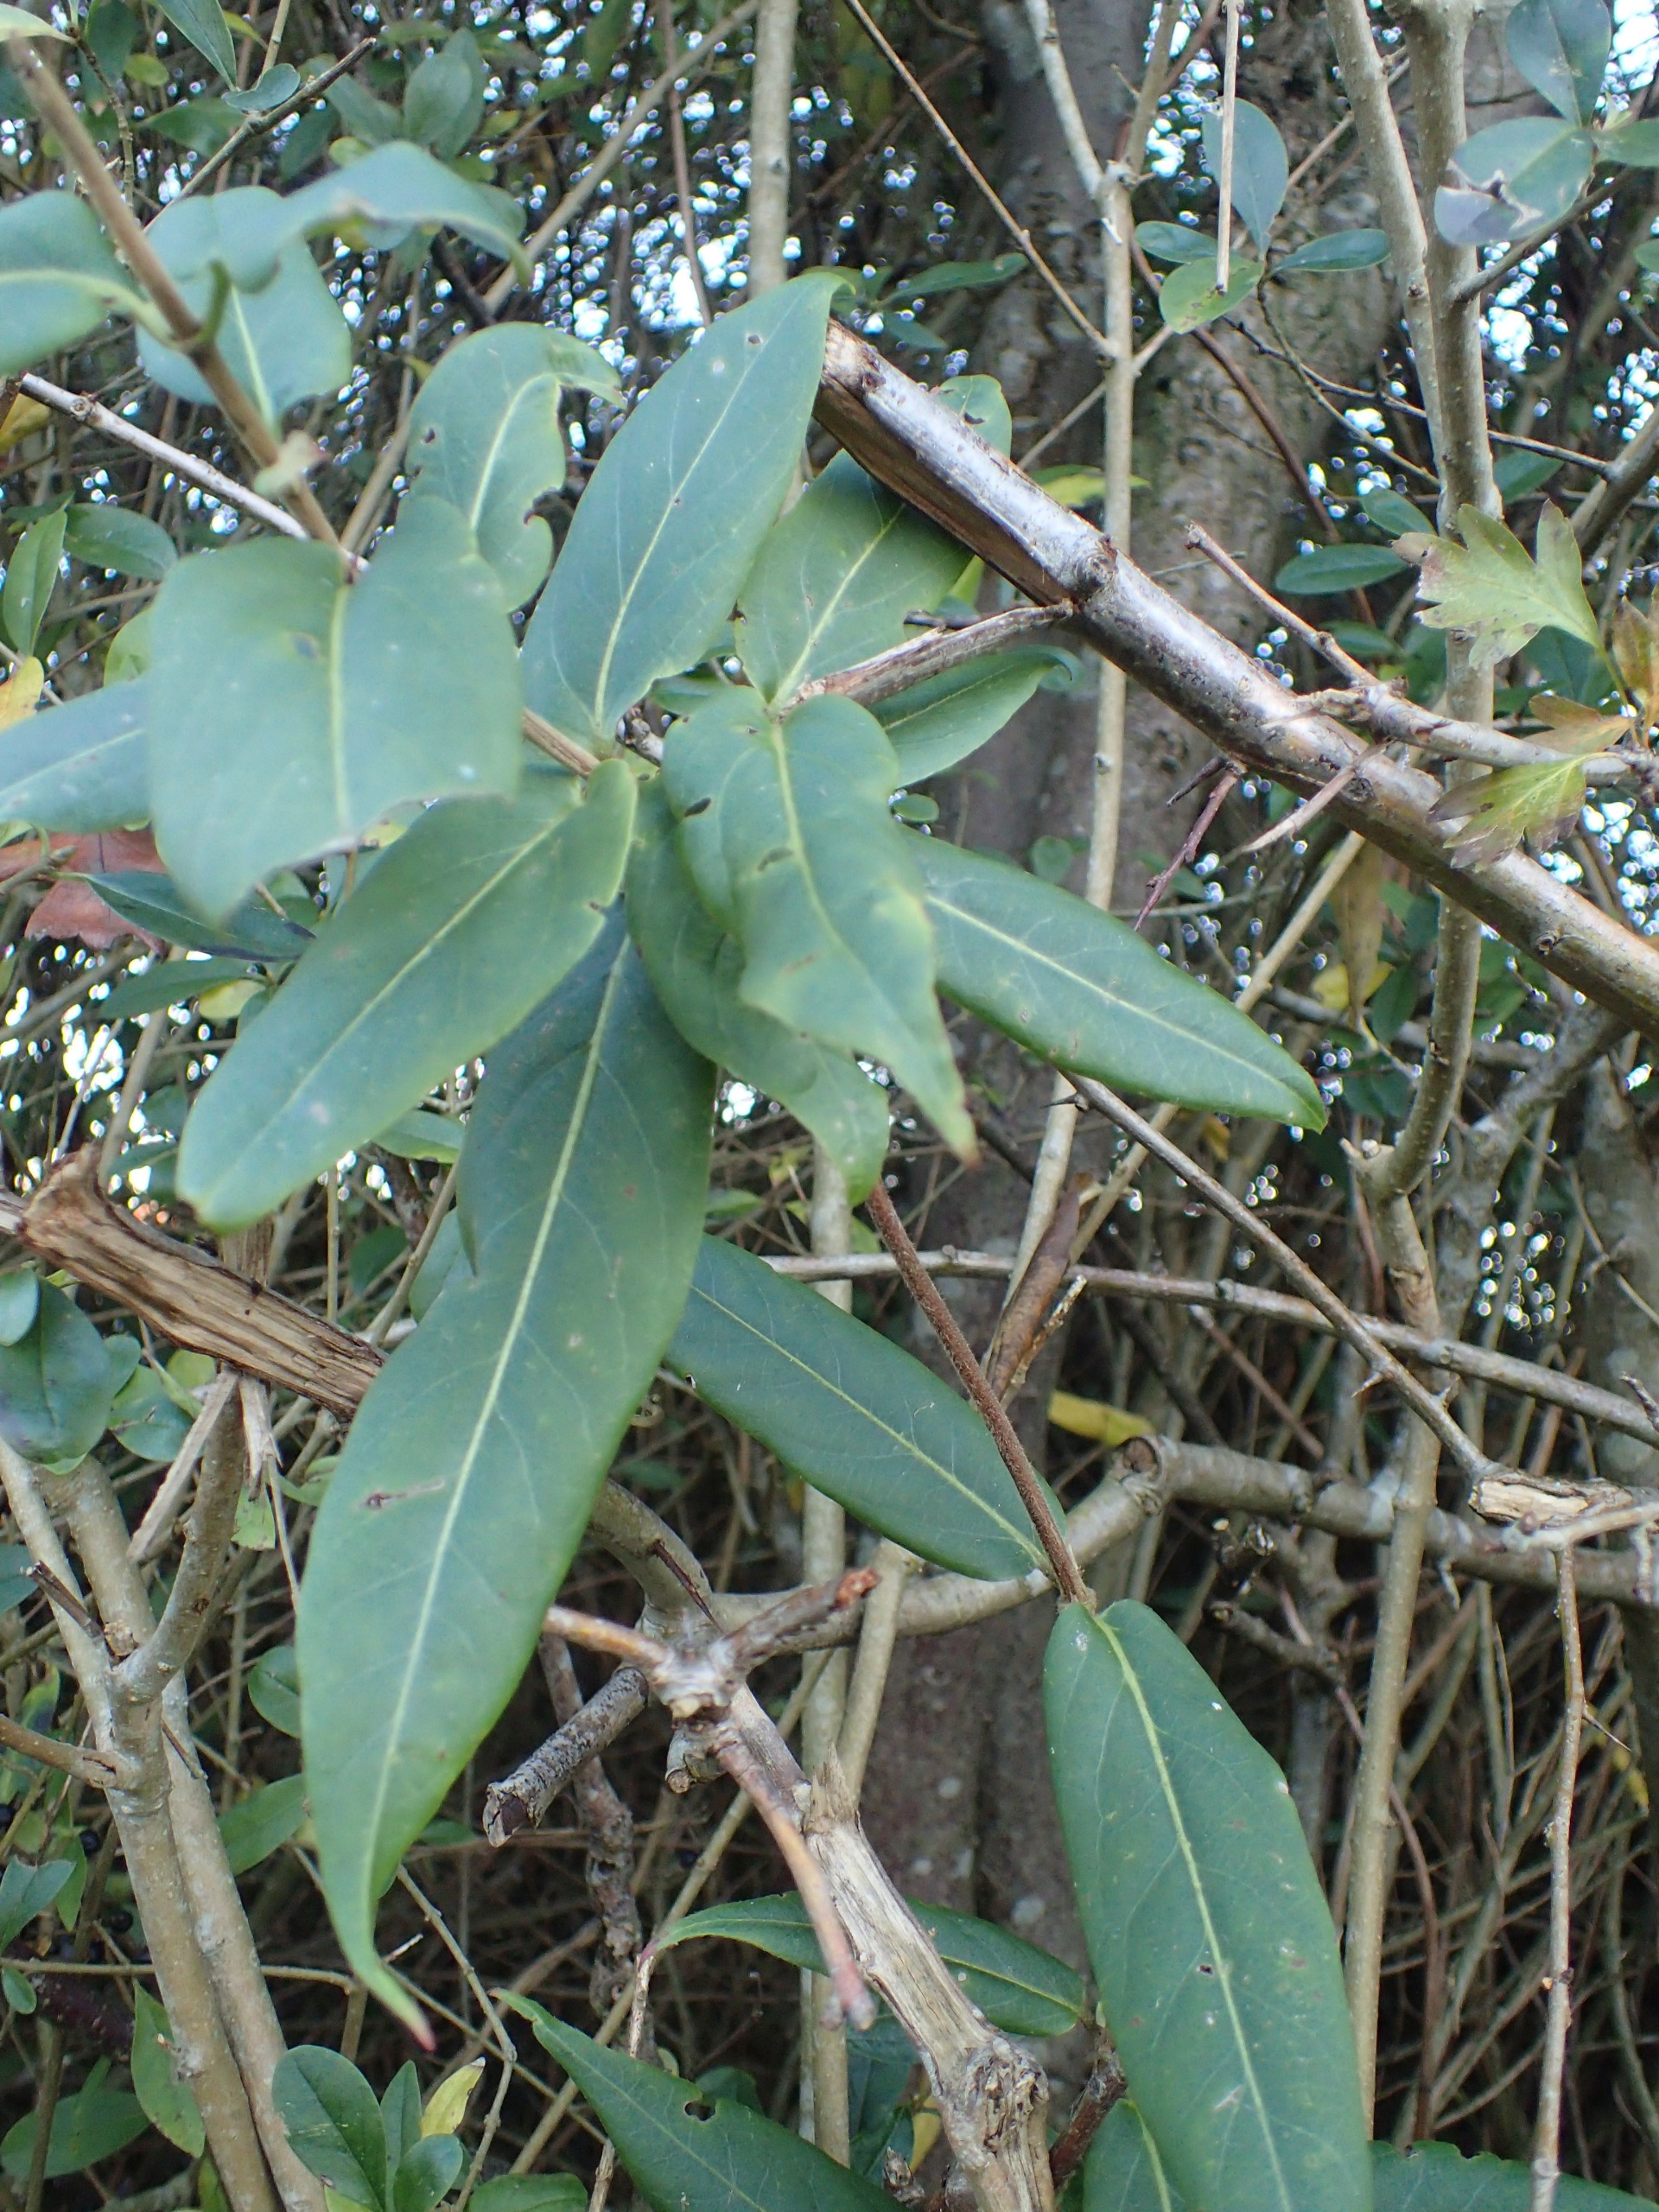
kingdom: Plantae
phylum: Tracheophyta
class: Magnoliopsida
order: Dipsacales
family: Caprifoliaceae
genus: Lonicera
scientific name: Lonicera acuminata
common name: Henrys gedeblad
